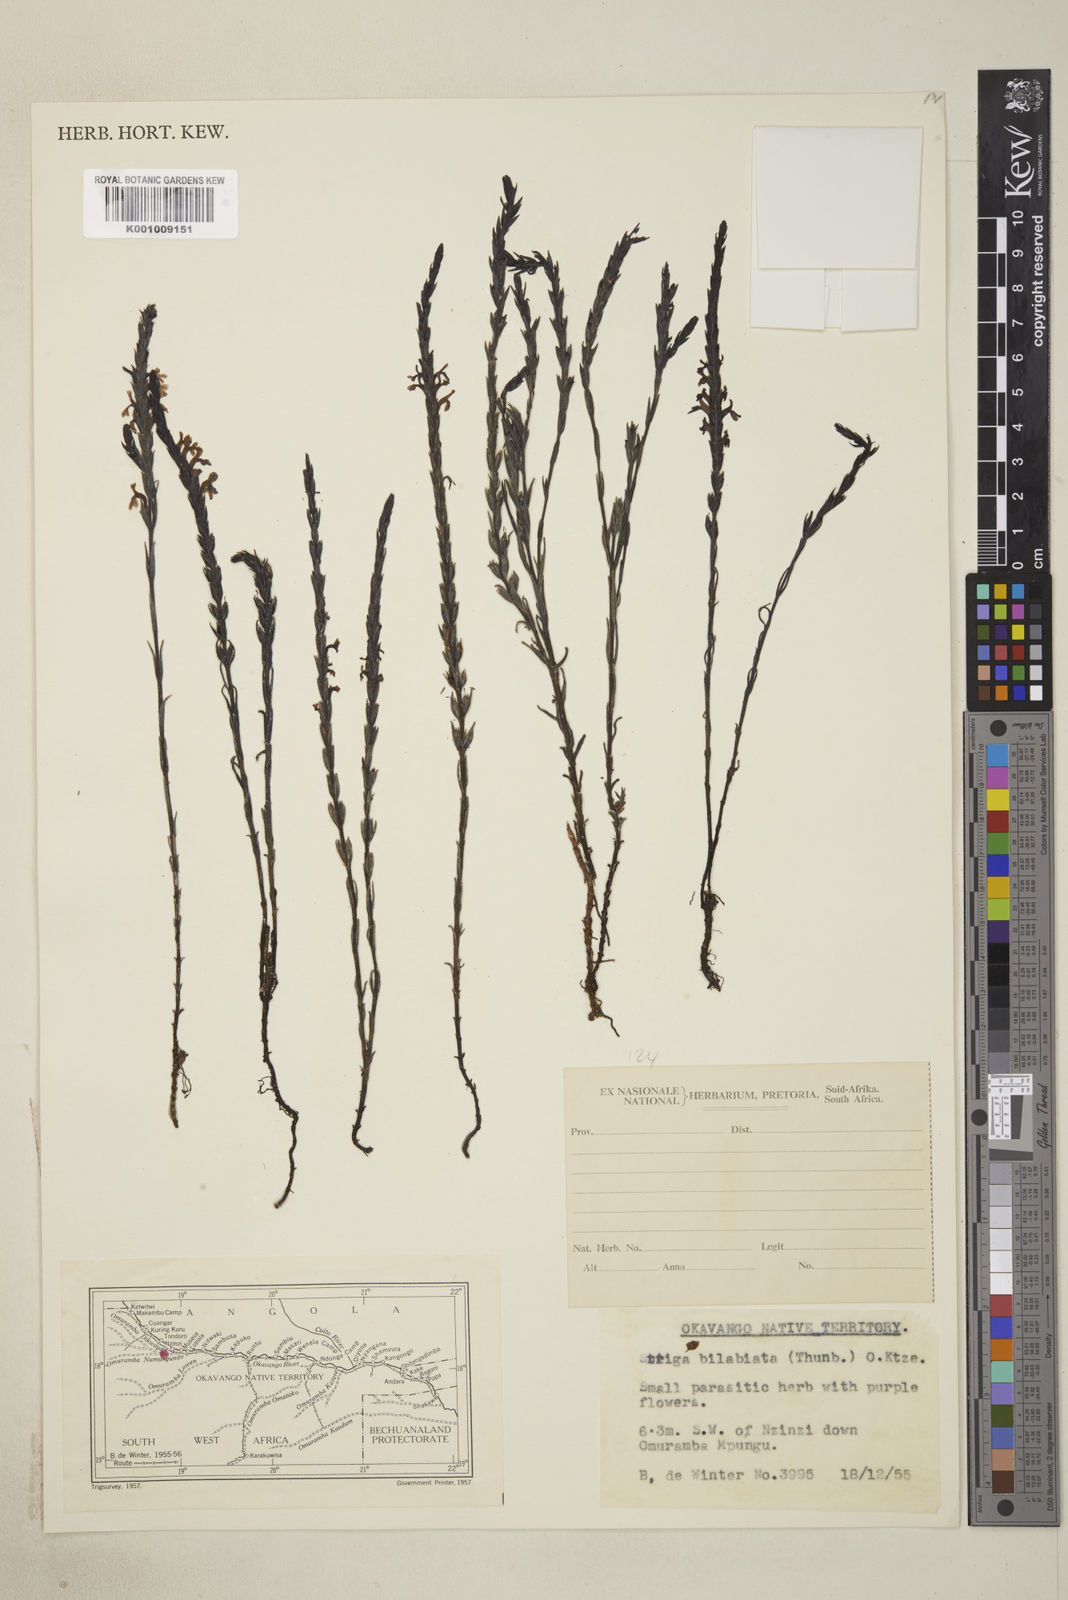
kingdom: Plantae
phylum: Tracheophyta
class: Magnoliopsida
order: Lamiales
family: Orobanchaceae
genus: Striga
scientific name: Striga bilabiata
